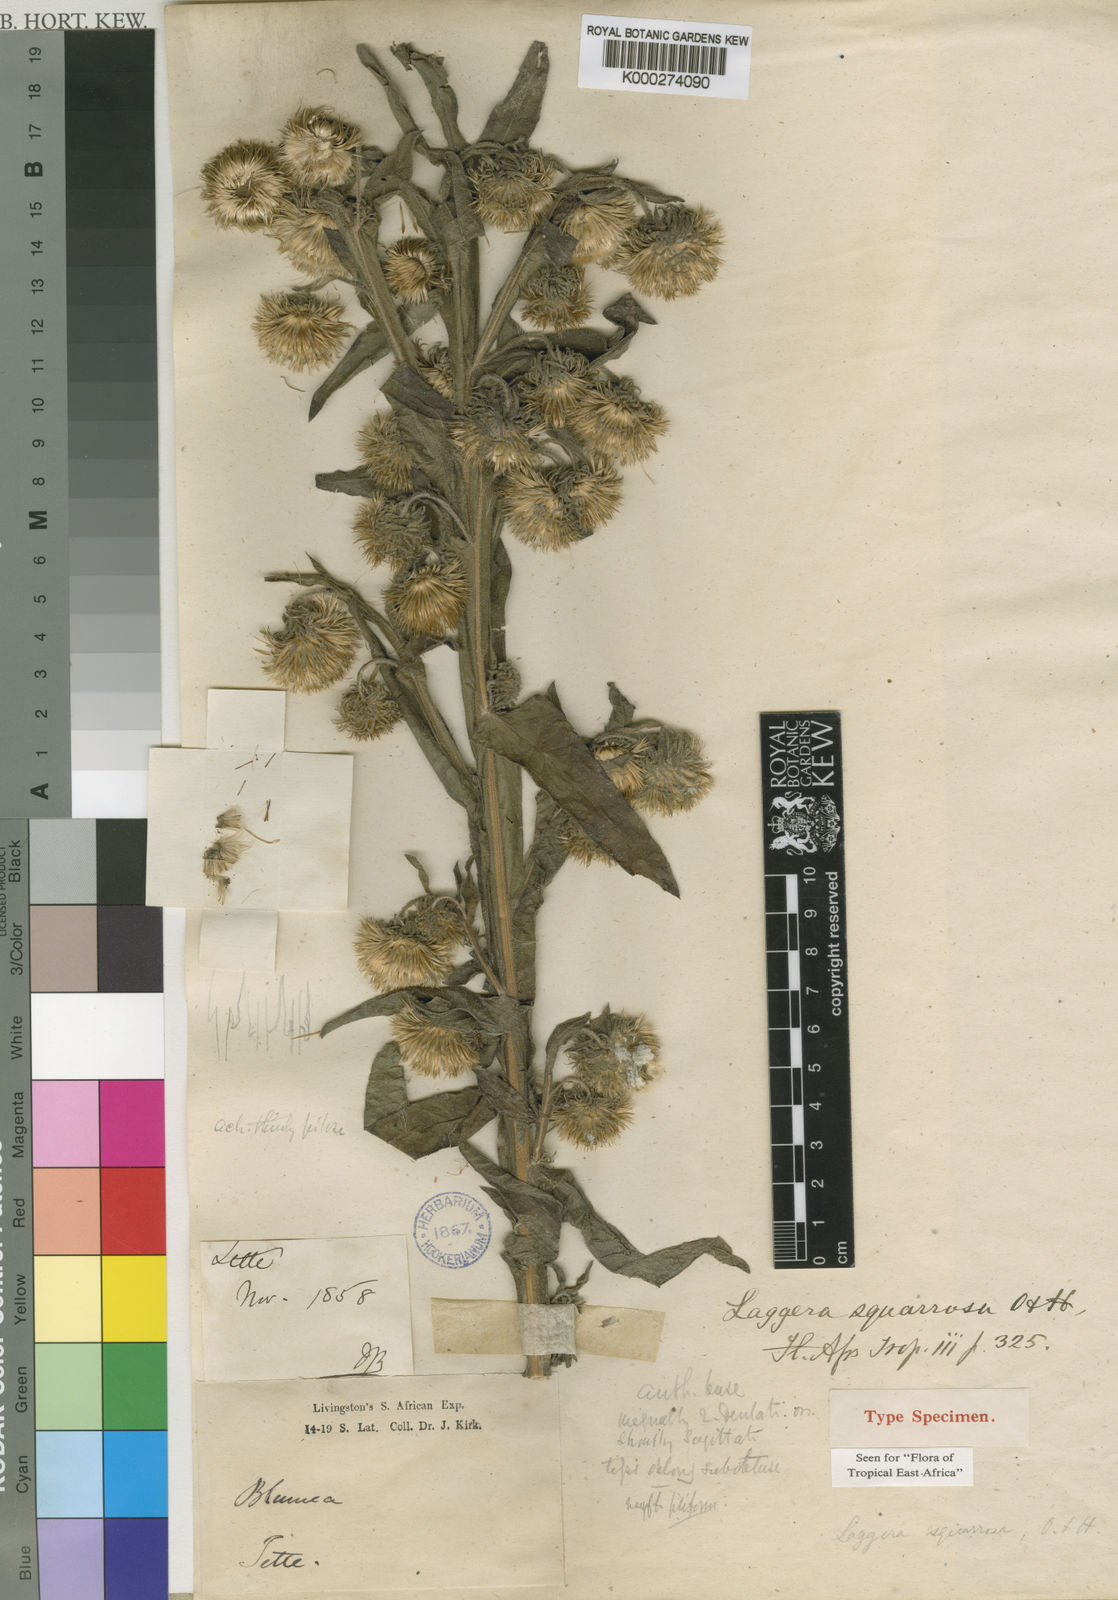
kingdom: Plantae
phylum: Tracheophyta
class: Magnoliopsida
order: Asterales
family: Asteraceae
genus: Laggera
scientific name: Laggera squarrosa
